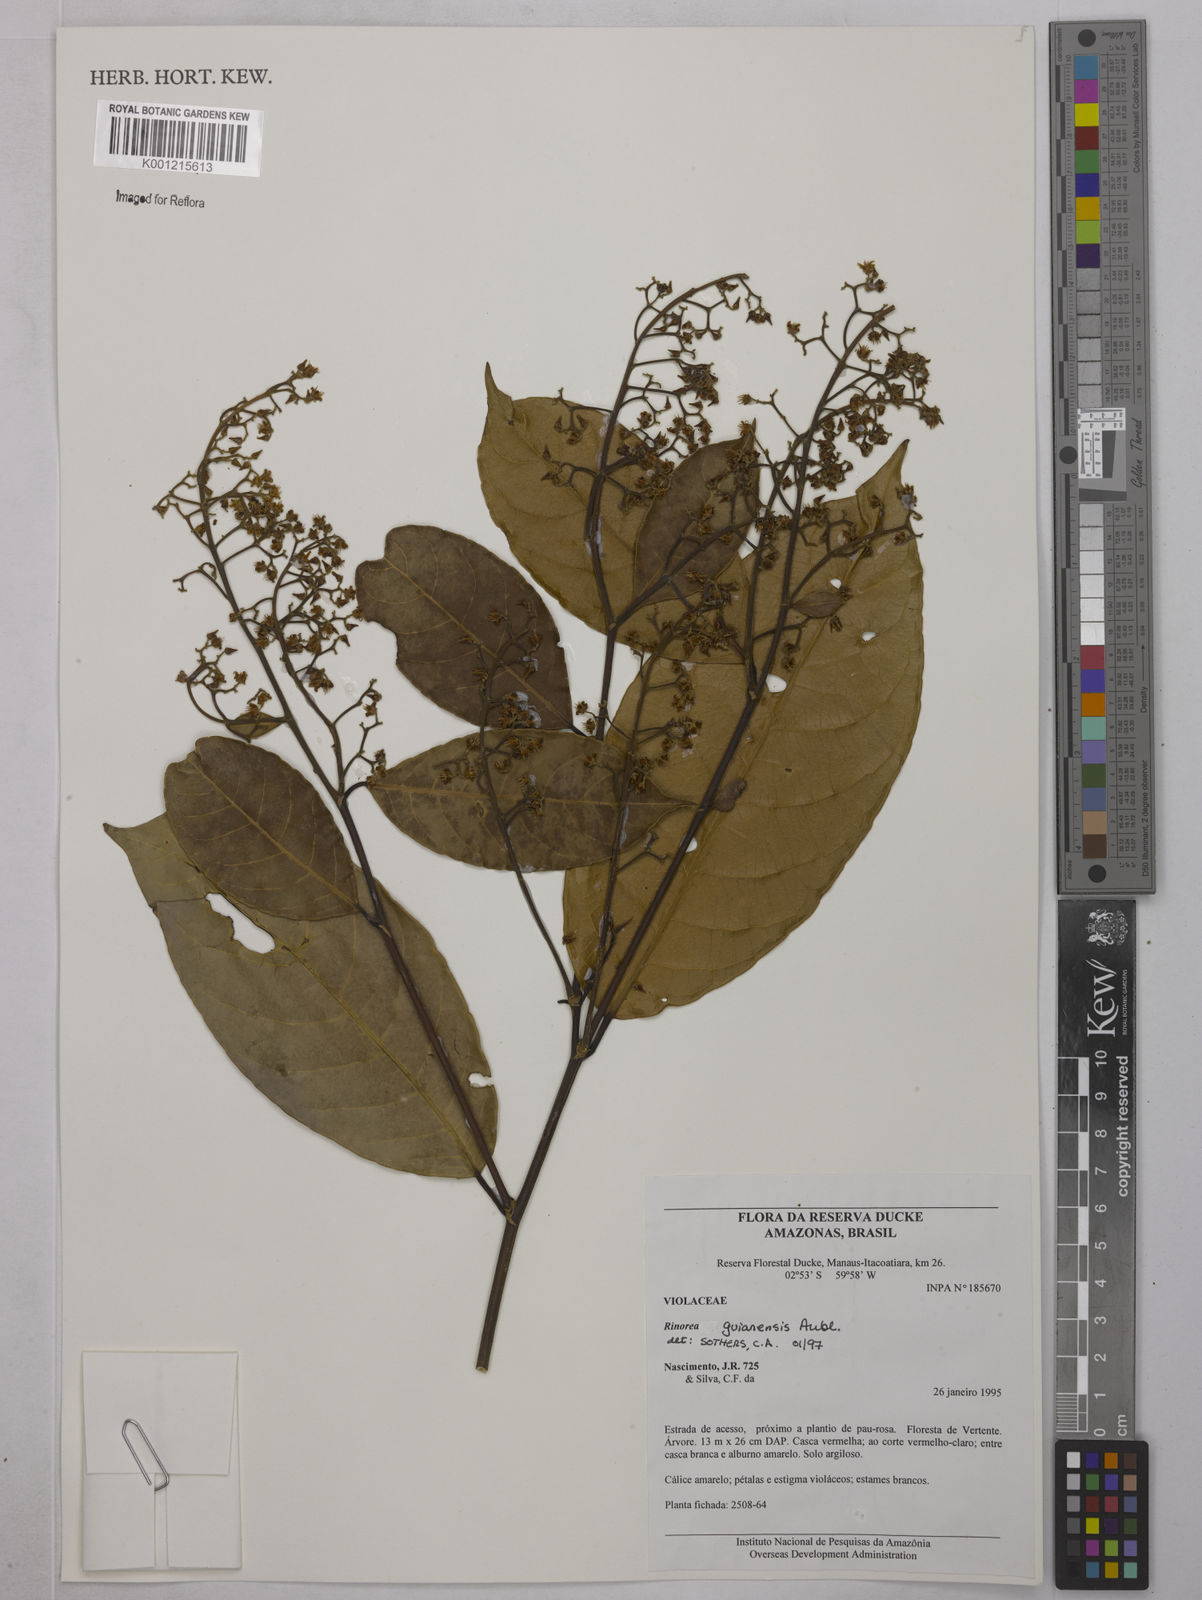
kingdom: Plantae
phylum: Tracheophyta
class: Magnoliopsida
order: Malpighiales
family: Violaceae
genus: Rinorea
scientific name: Rinorea guianensis
